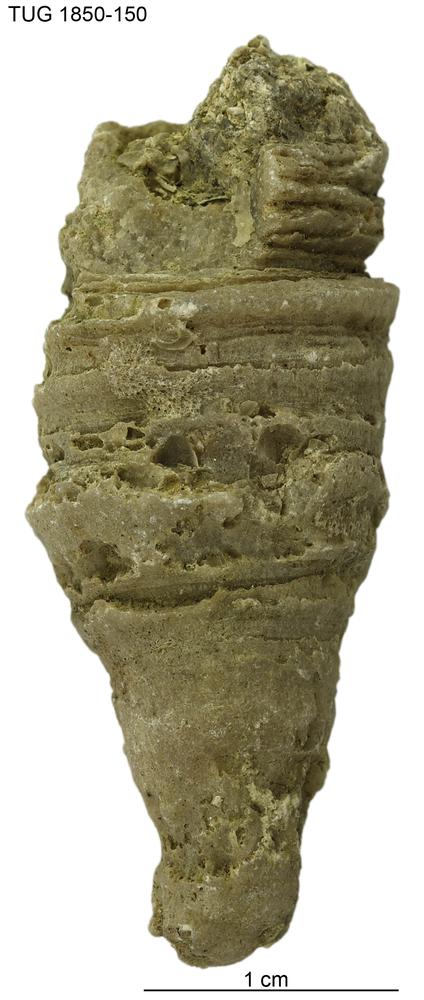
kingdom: Animalia
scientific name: Animalia
